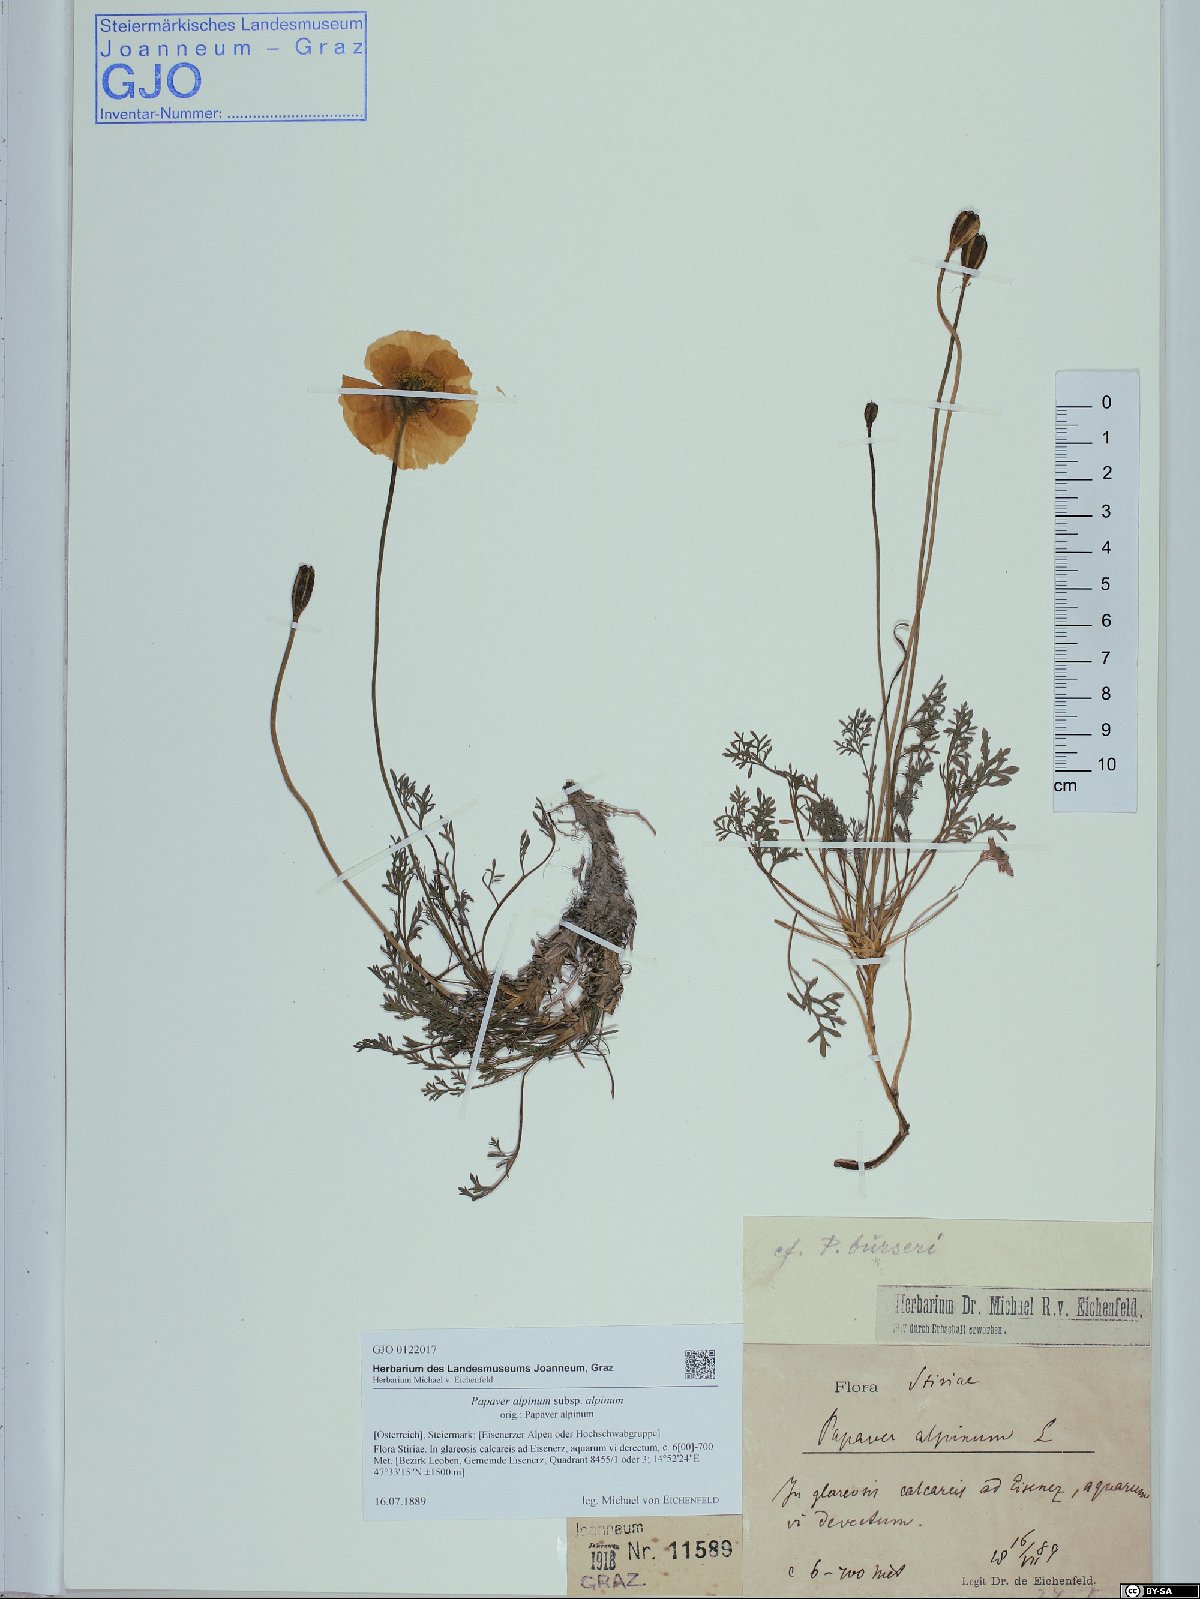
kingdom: Plantae
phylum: Tracheophyta
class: Magnoliopsida
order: Ranunculales
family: Papaveraceae
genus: Papaver
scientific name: Papaver alpinum
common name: Austrian poppy
